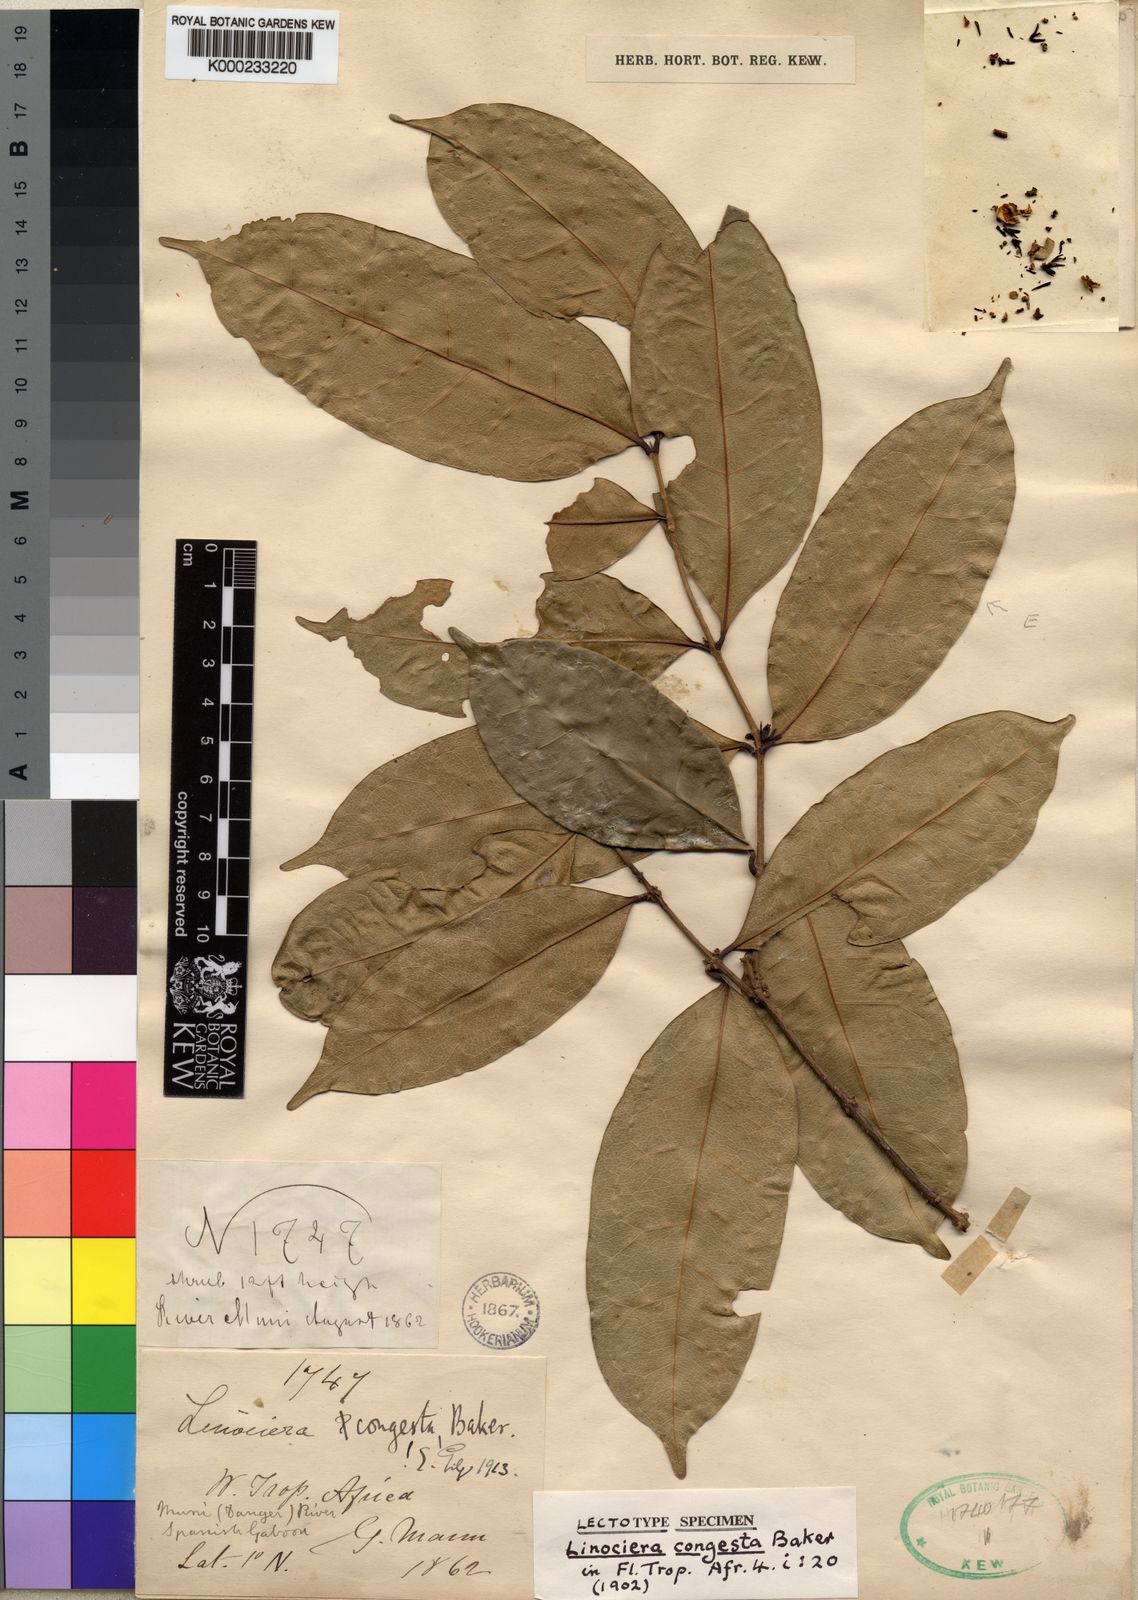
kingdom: Plantae
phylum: Tracheophyta
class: Magnoliopsida
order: Lamiales
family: Oleaceae
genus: Noronhia
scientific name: Noronhia congesta
